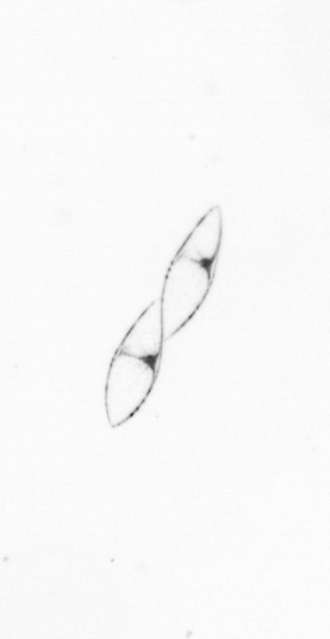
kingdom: Chromista
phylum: Ochrophyta
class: Bacillariophyceae
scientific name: Bacillariophyceae
